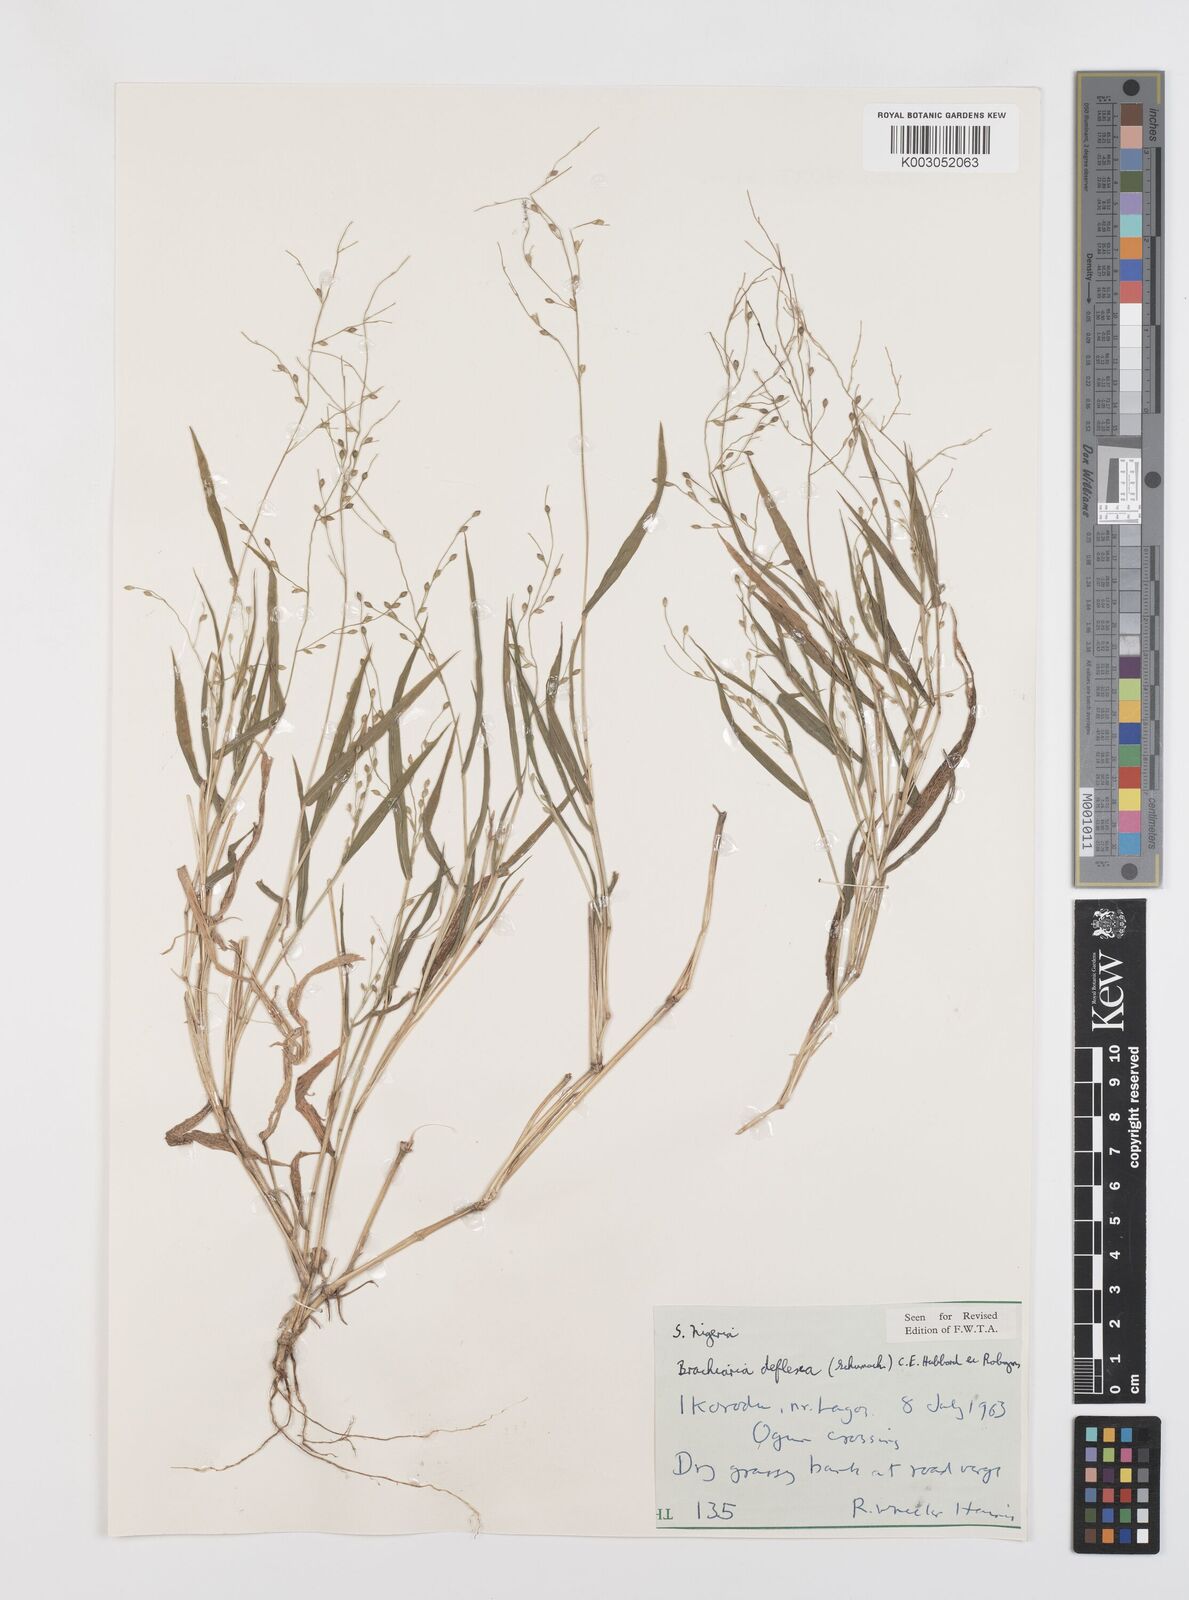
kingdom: Plantae
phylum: Tracheophyta
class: Liliopsida
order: Poales
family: Poaceae
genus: Urochloa
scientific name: Urochloa deflexa
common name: Guinea millet
